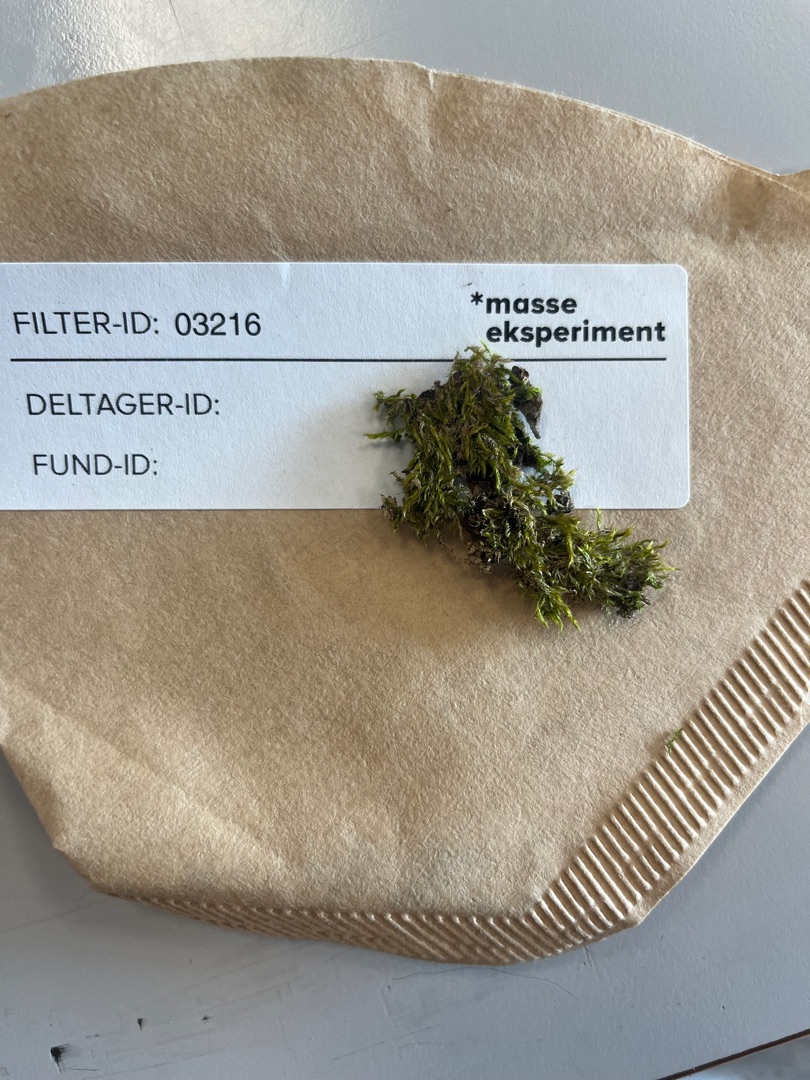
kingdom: Plantae
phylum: Bryophyta
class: Bryopsida
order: Hypnales
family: Hypnaceae
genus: Hypnum
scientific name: Hypnum
